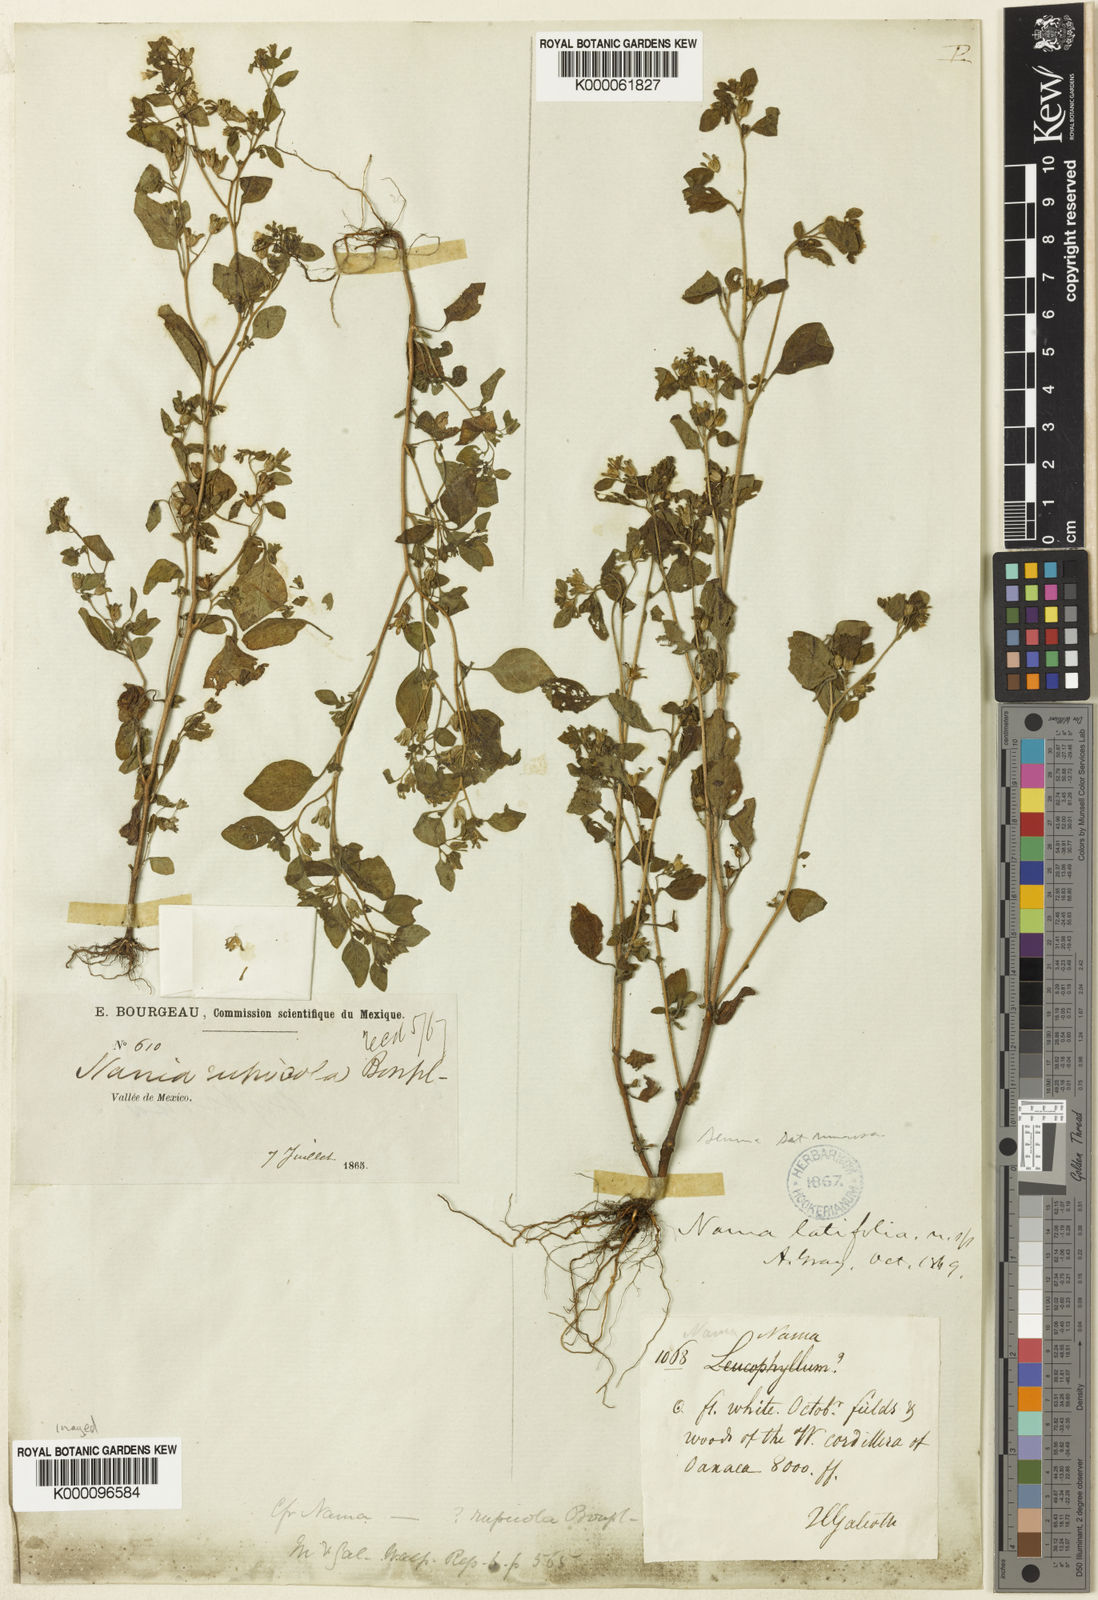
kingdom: Plantae
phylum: Tracheophyta
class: Magnoliopsida
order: Boraginales
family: Namaceae
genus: Nama
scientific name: Nama dichotoma
